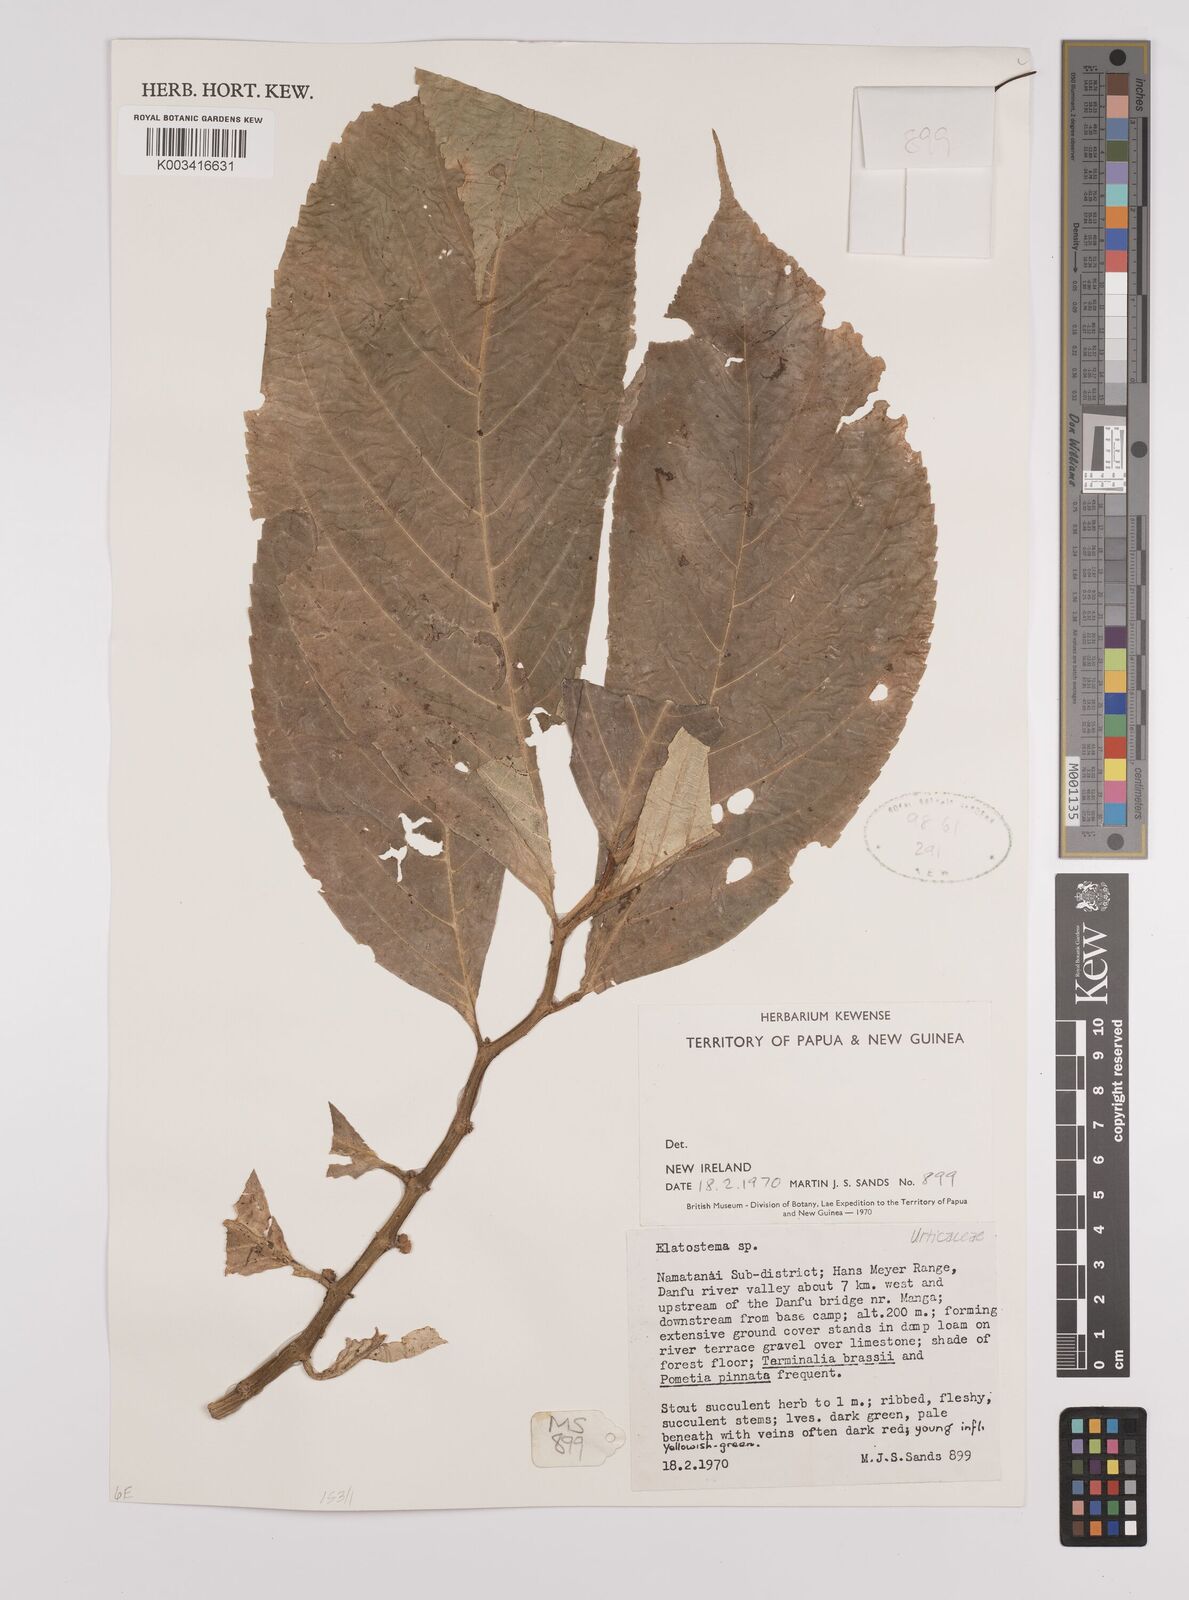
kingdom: Plantae
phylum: Tracheophyta
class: Magnoliopsida
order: Rosales
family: Urticaceae
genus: Elatostema
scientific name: Elatostema
